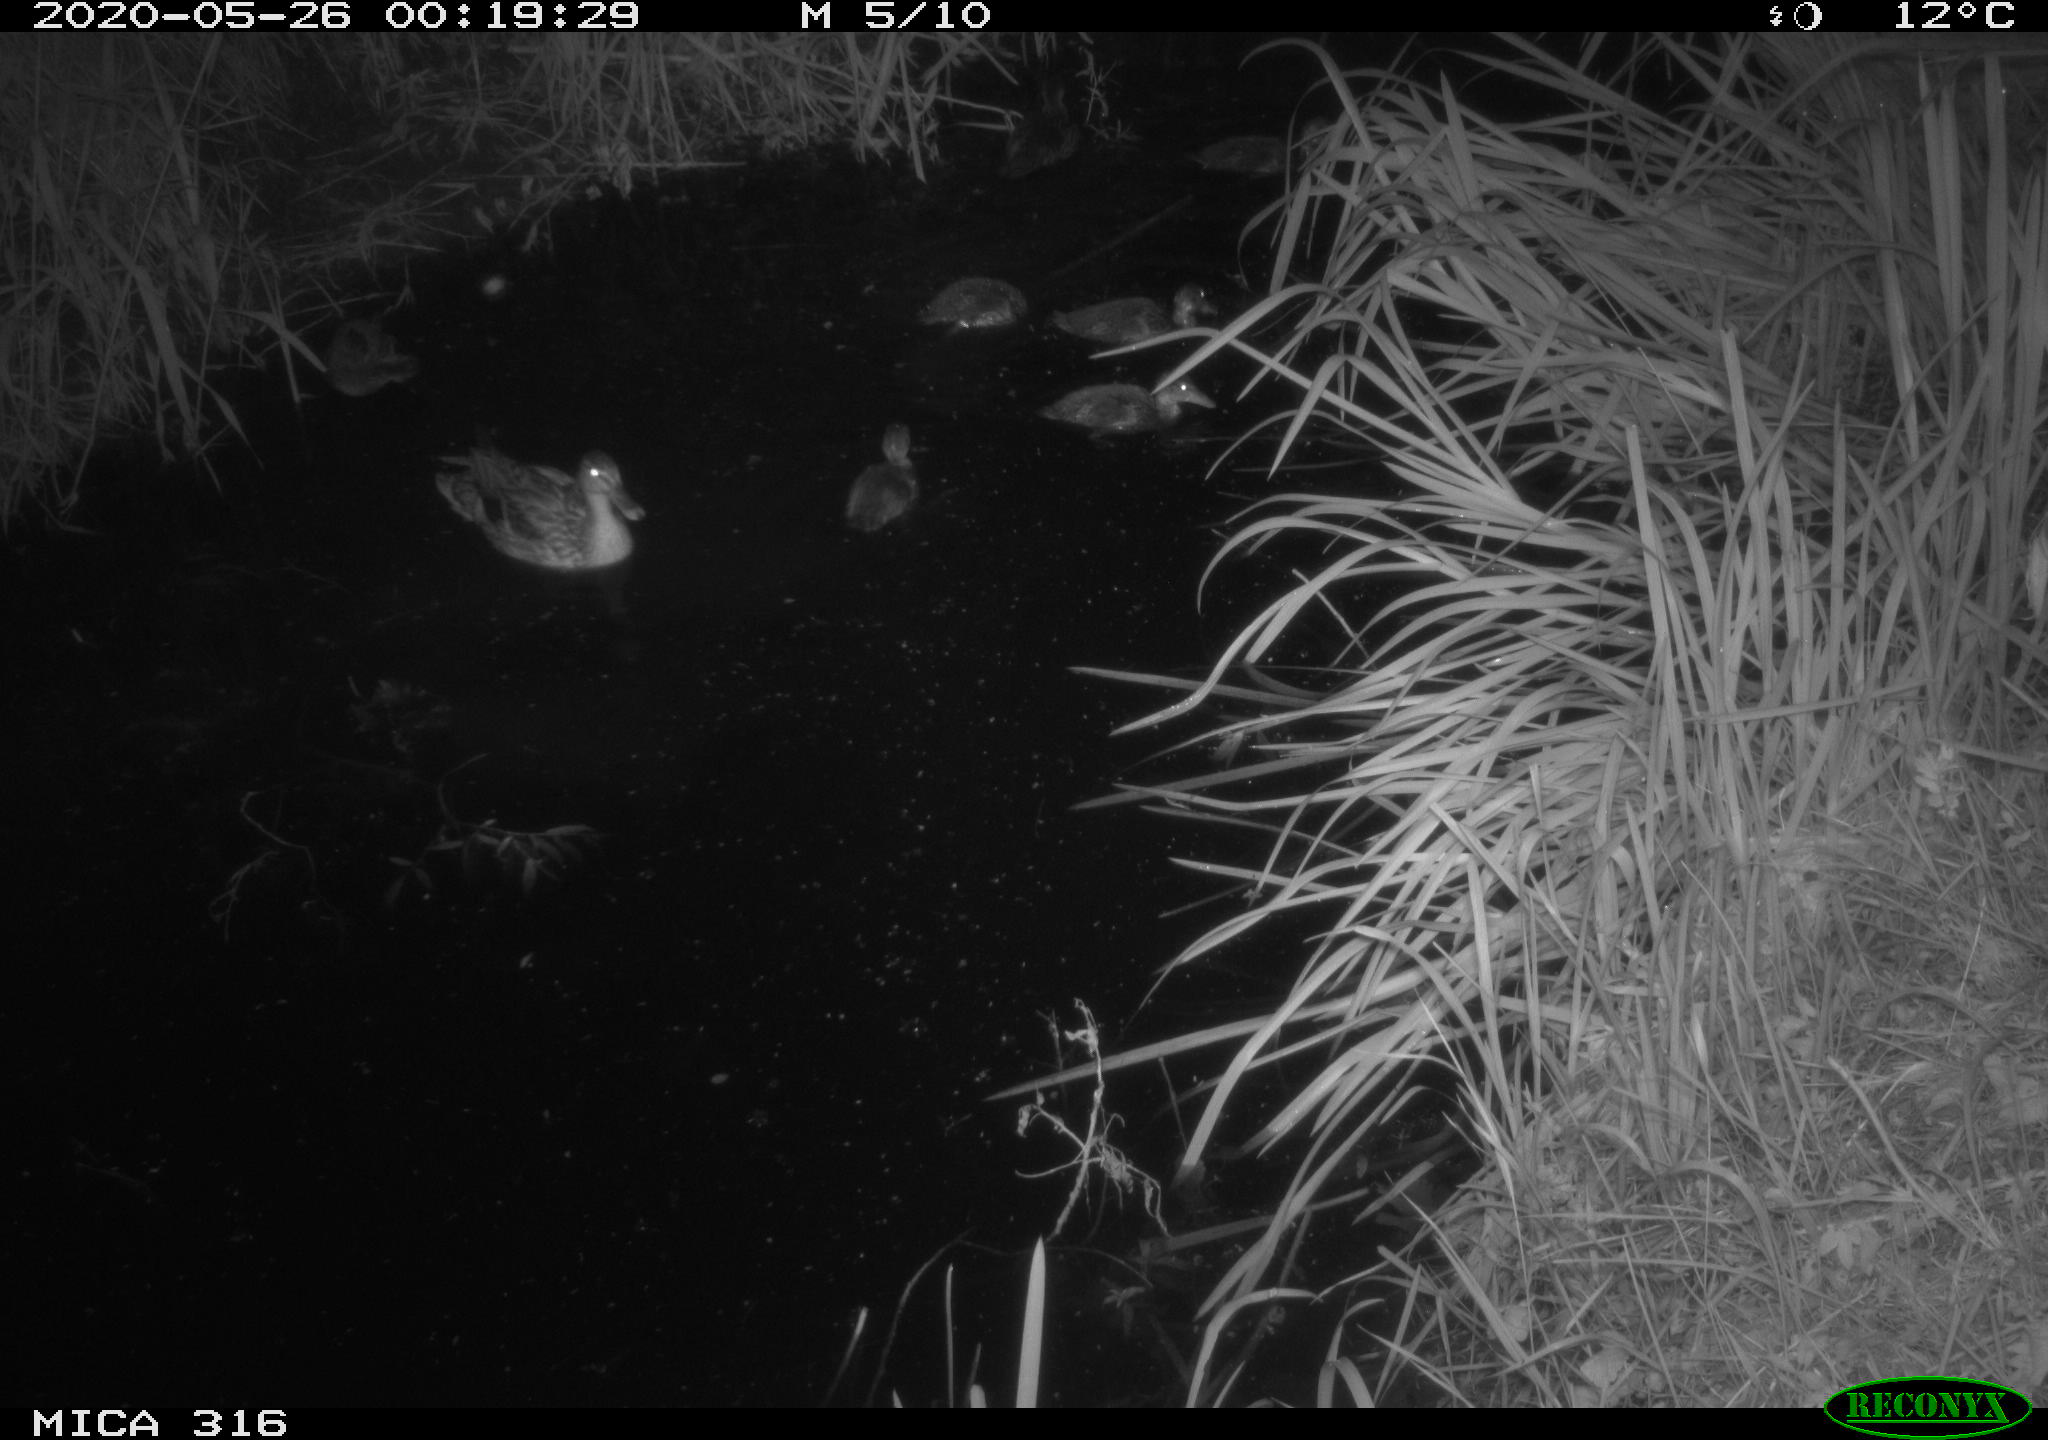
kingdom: Animalia
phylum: Chordata
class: Aves
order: Anseriformes
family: Anatidae
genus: Anas
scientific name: Anas platyrhynchos
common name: Mallard
